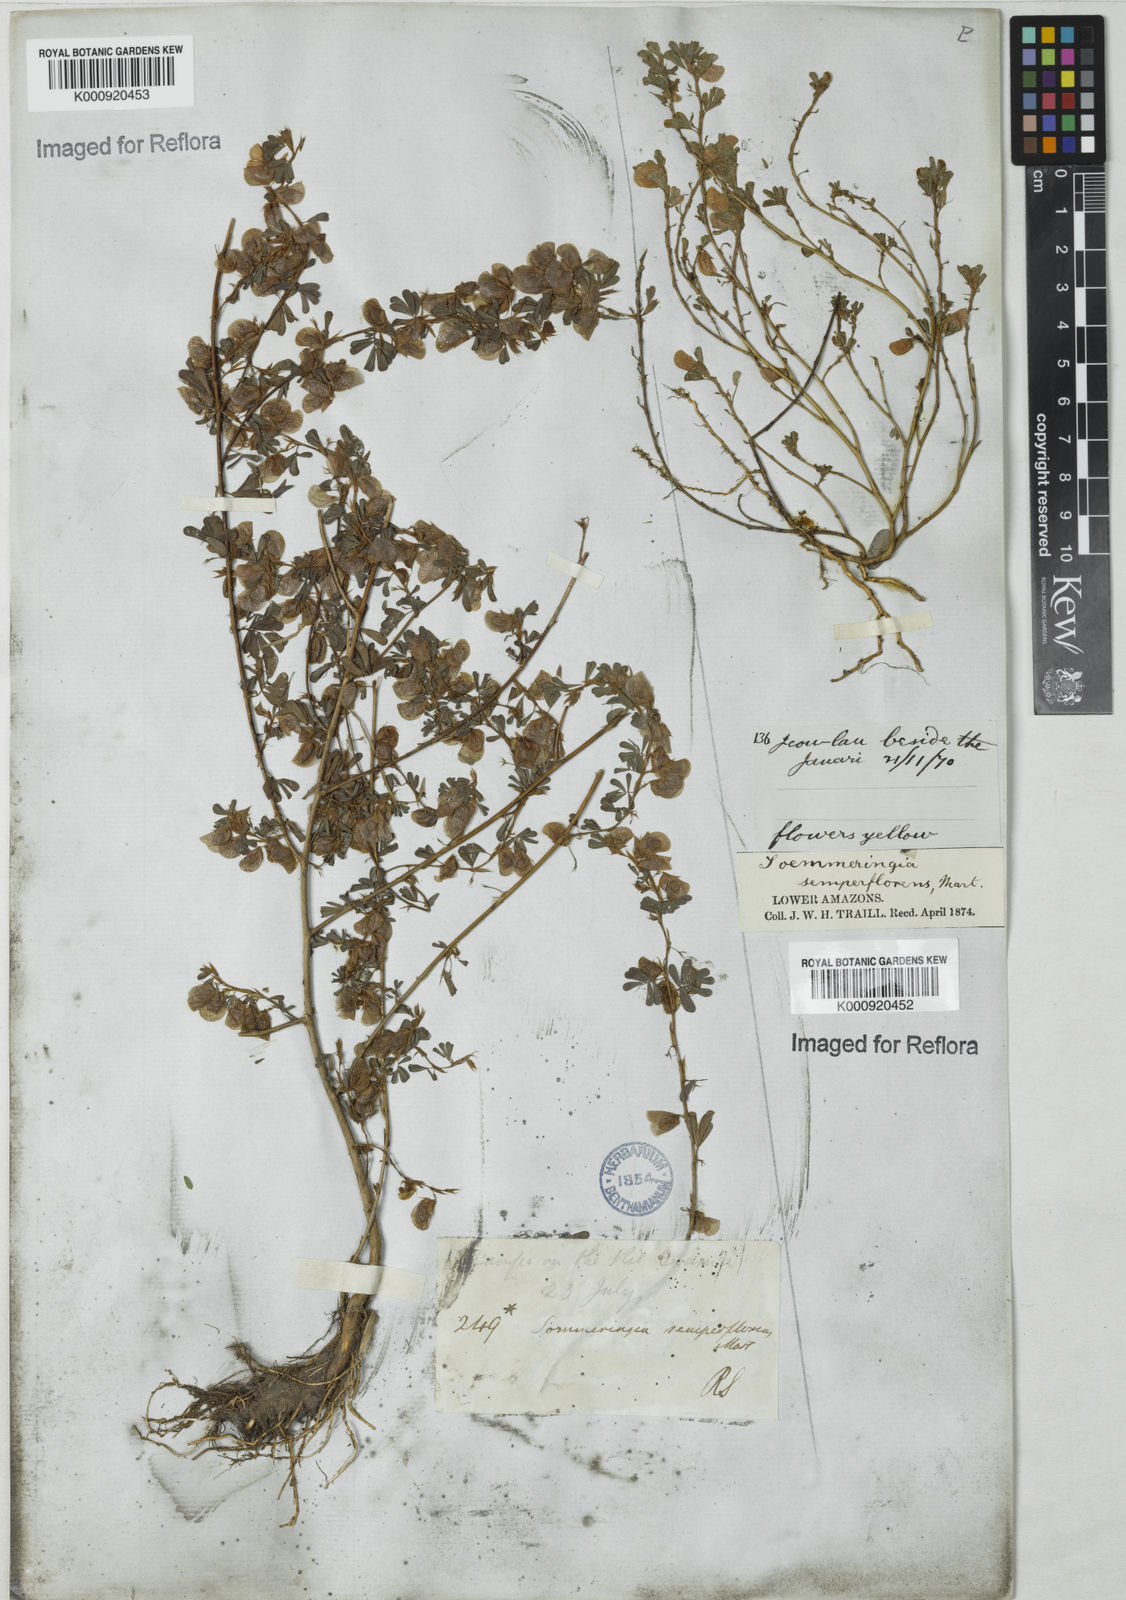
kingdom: Plantae
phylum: Tracheophyta
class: Magnoliopsida
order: Fabales
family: Fabaceae
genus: Soemmeringia
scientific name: Soemmeringia
